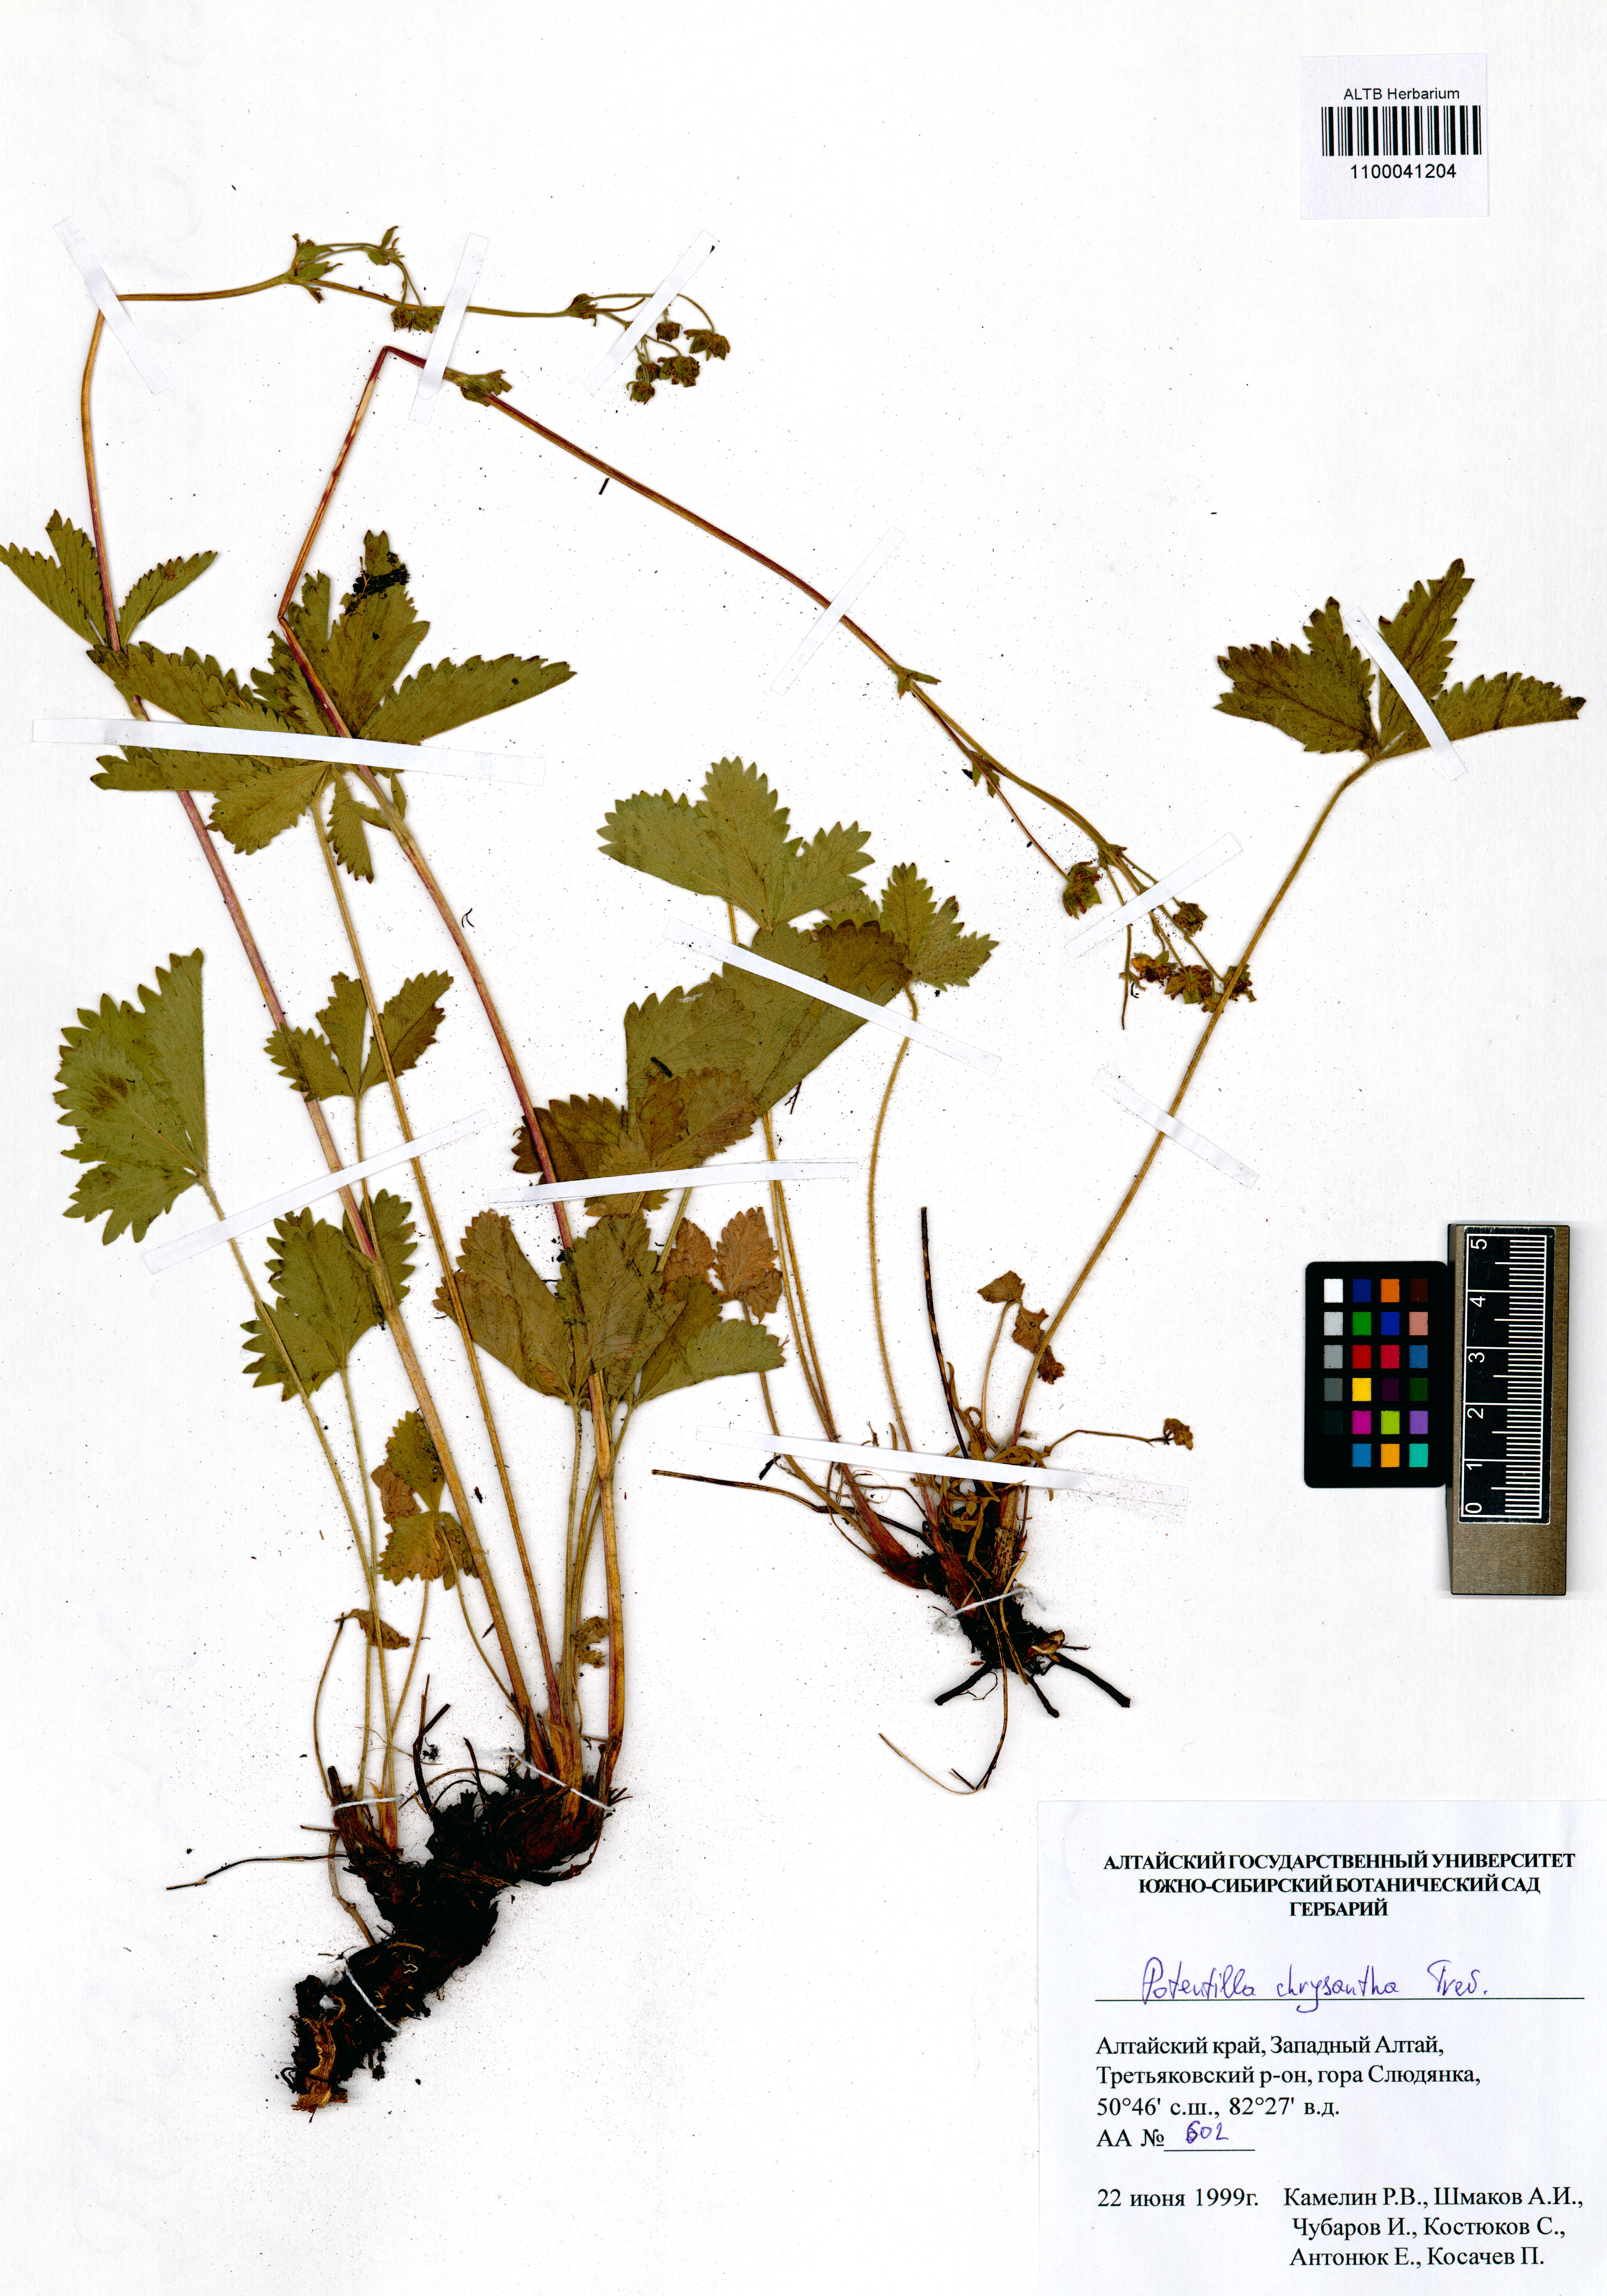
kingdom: Plantae
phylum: Tracheophyta
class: Magnoliopsida
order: Rosales
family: Rosaceae
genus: Potentilla
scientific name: Potentilla chrysantha
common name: Thuringian cinquefoil
